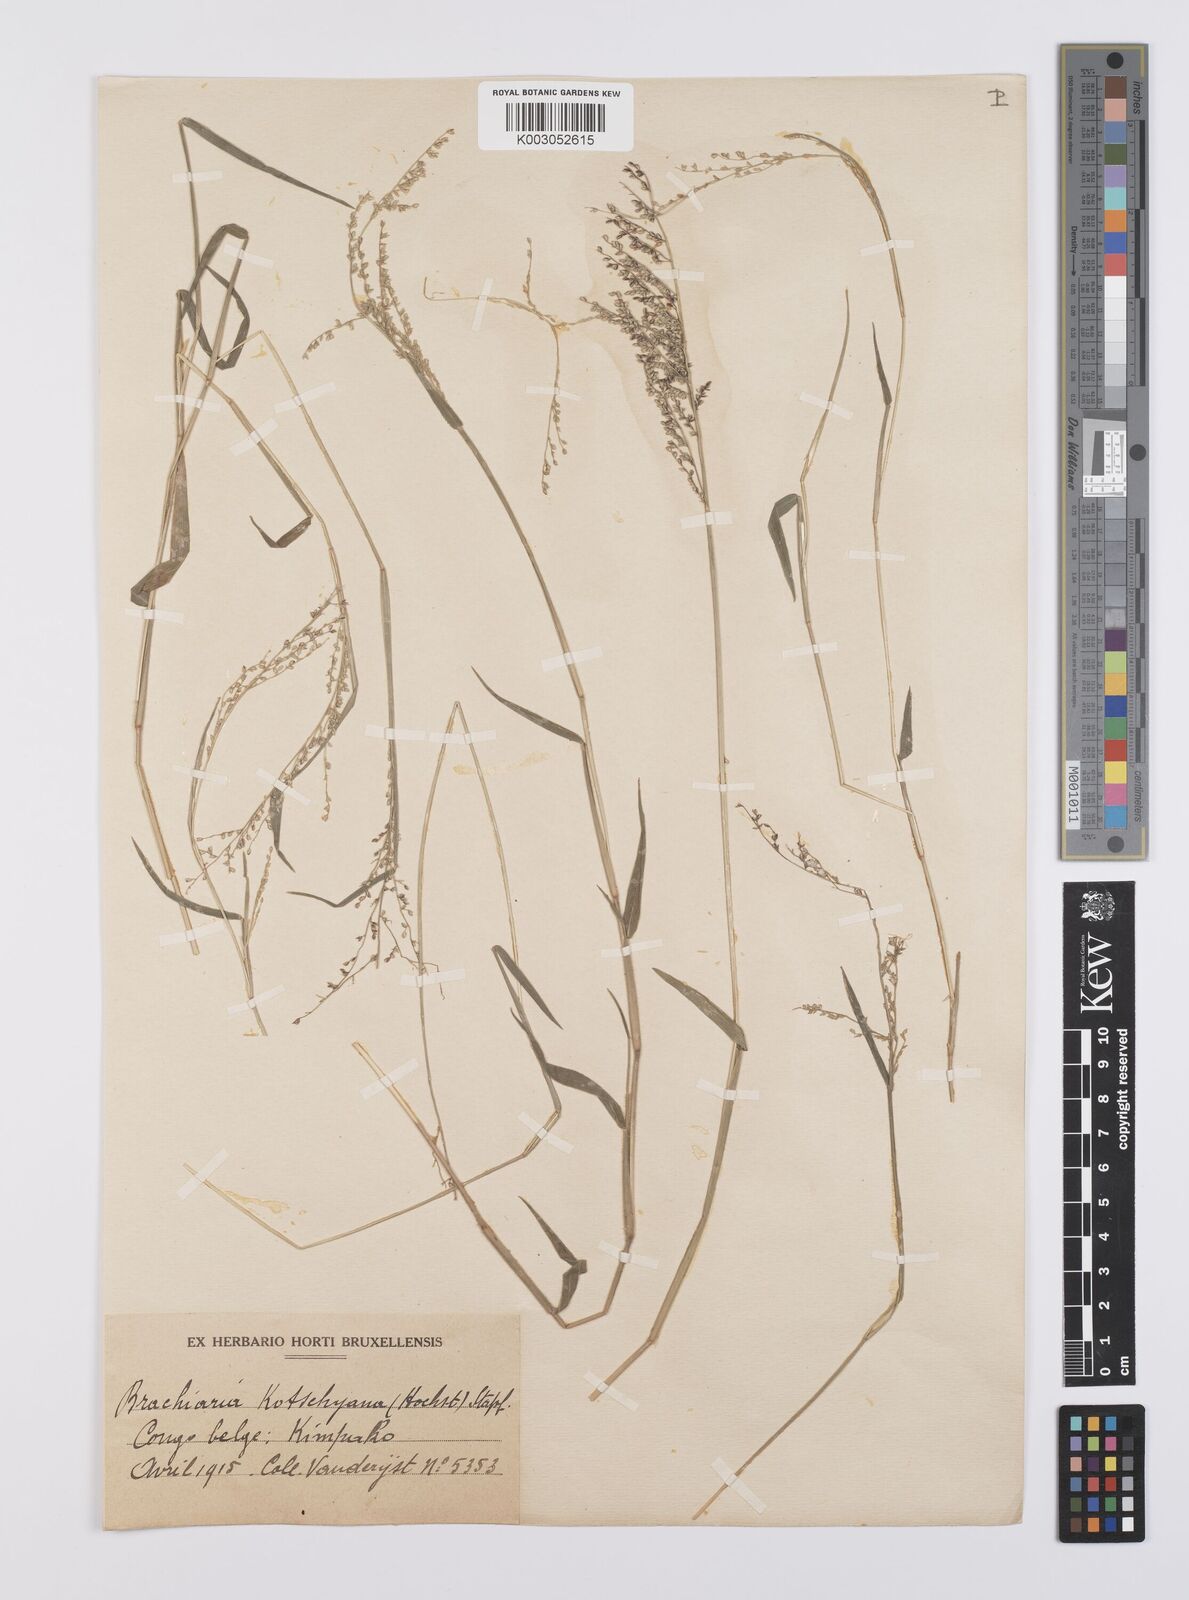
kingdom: Plantae
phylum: Tracheophyta
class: Liliopsida
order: Poales
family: Poaceae
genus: Urochloa
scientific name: Urochloa comata
